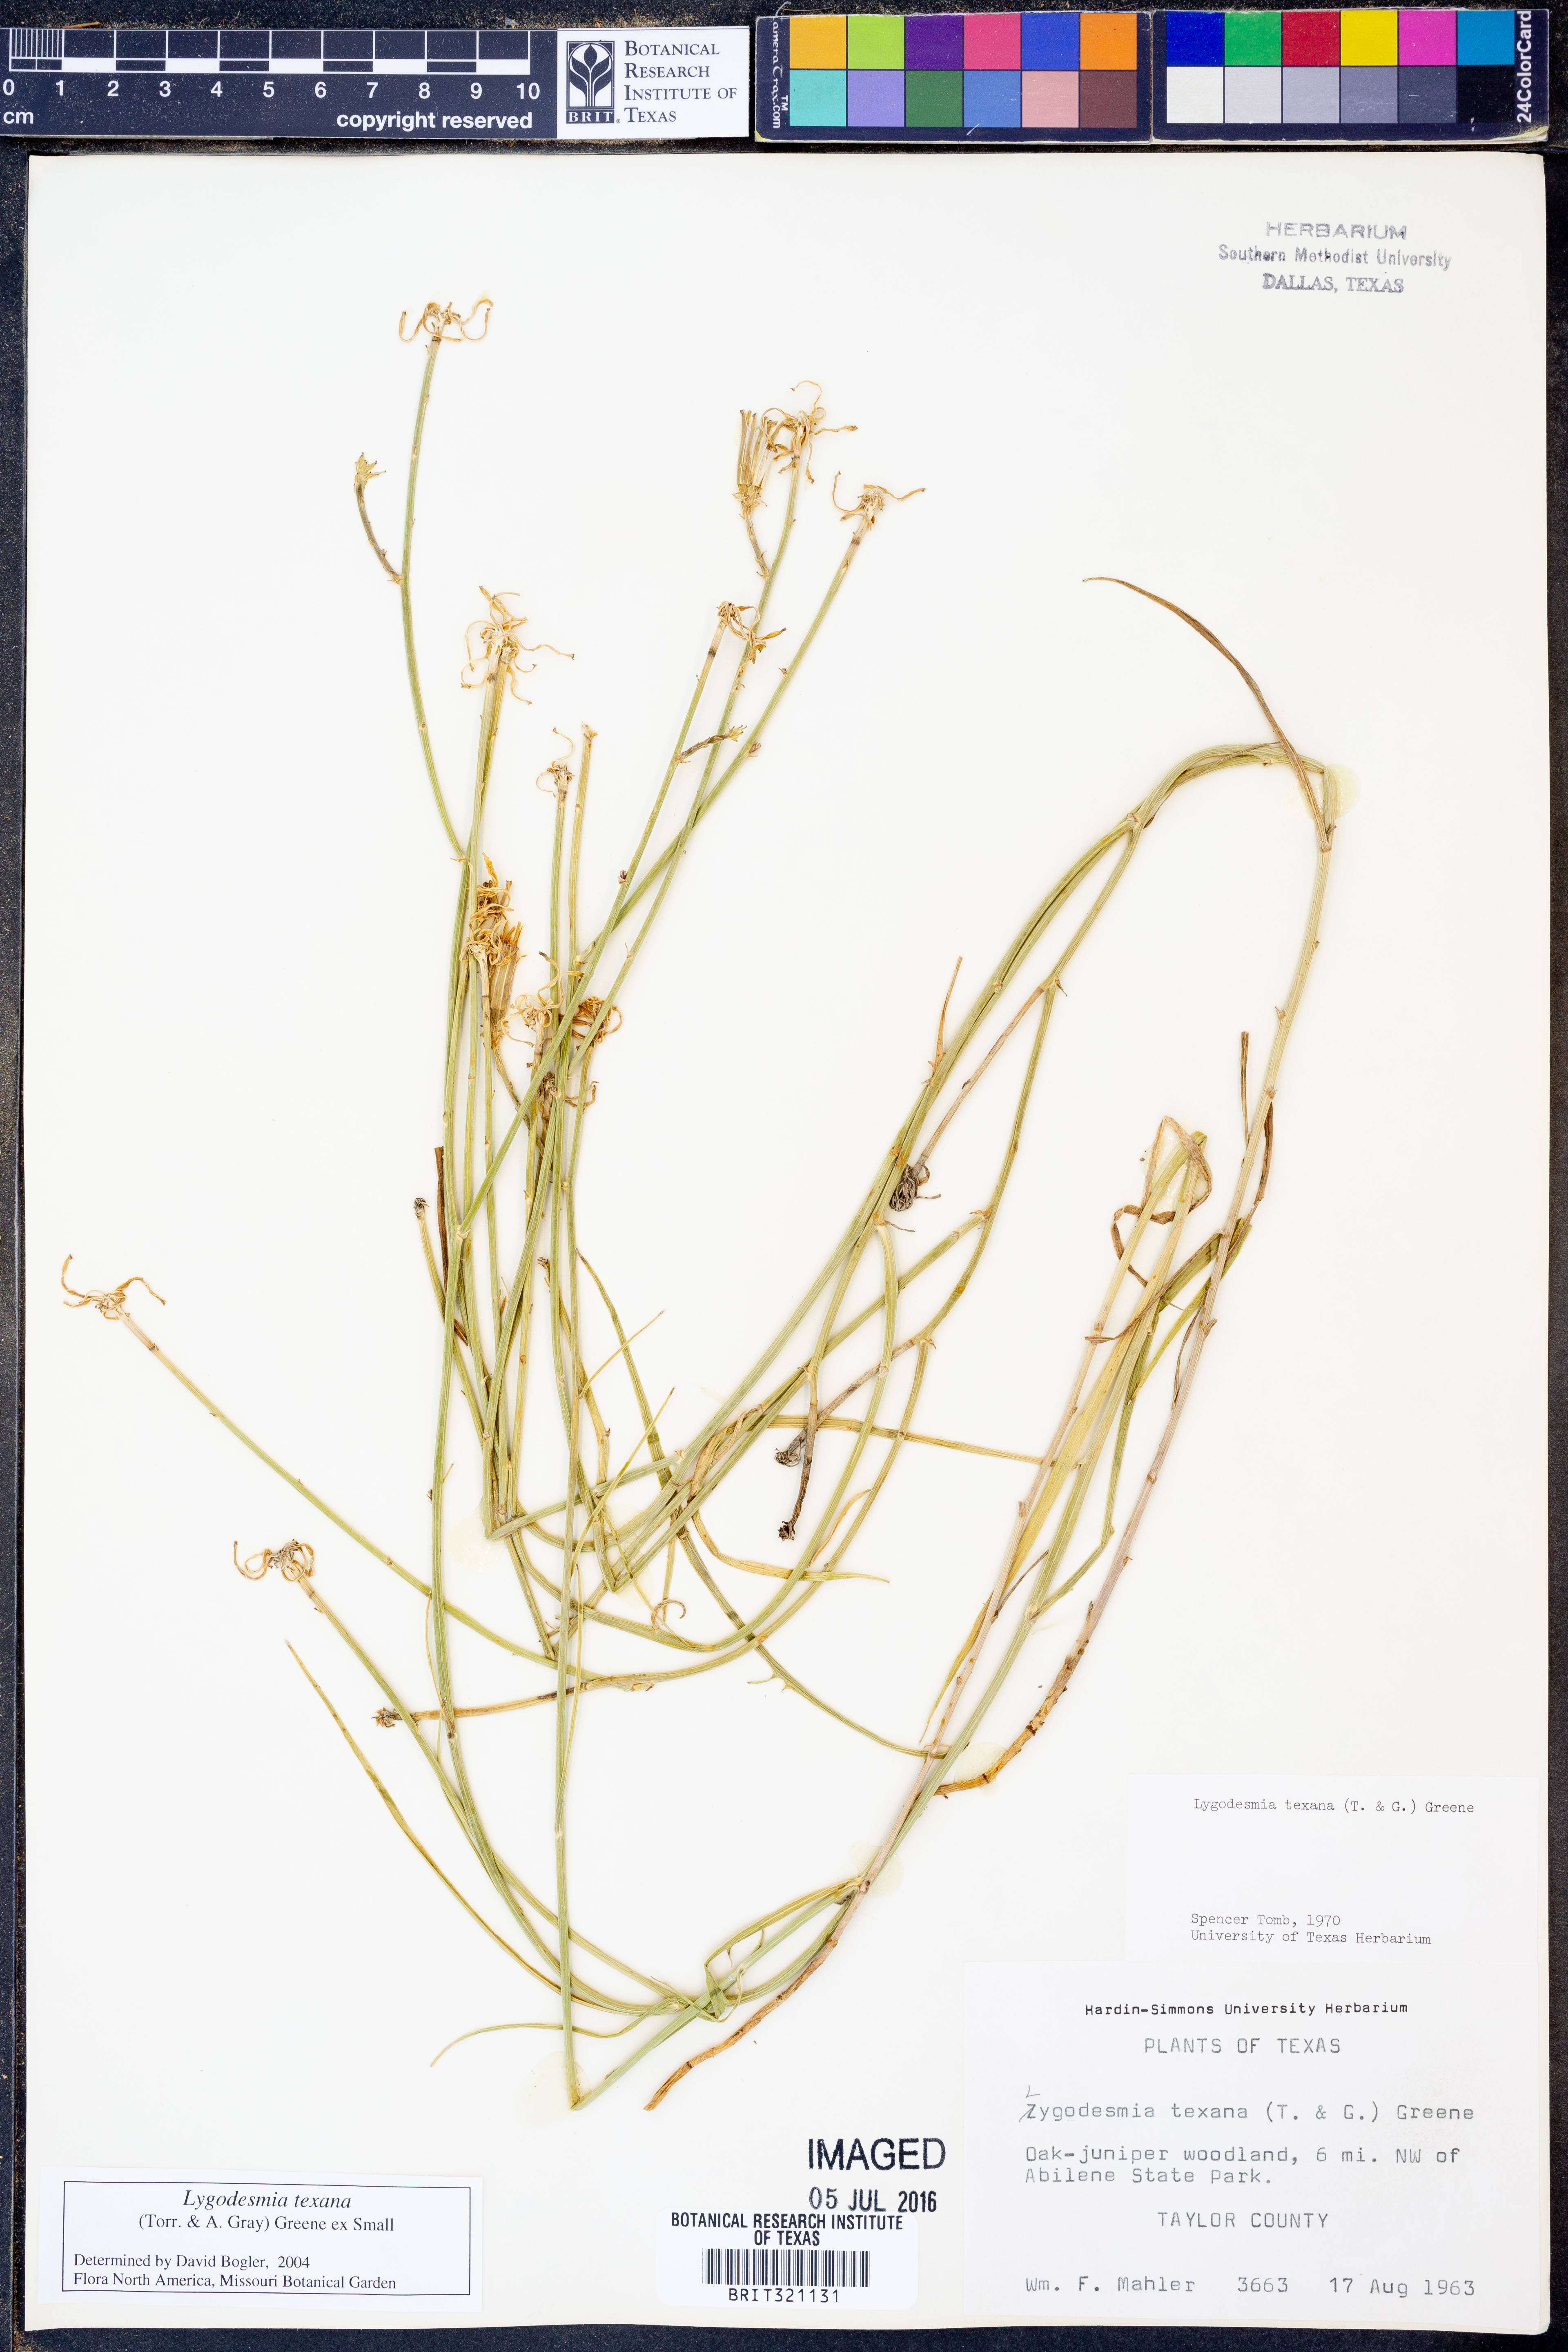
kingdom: Plantae
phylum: Tracheophyta
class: Magnoliopsida
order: Asterales
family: Asteraceae
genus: Lygodesmia
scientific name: Lygodesmia texana
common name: Texas skeleton-plant
